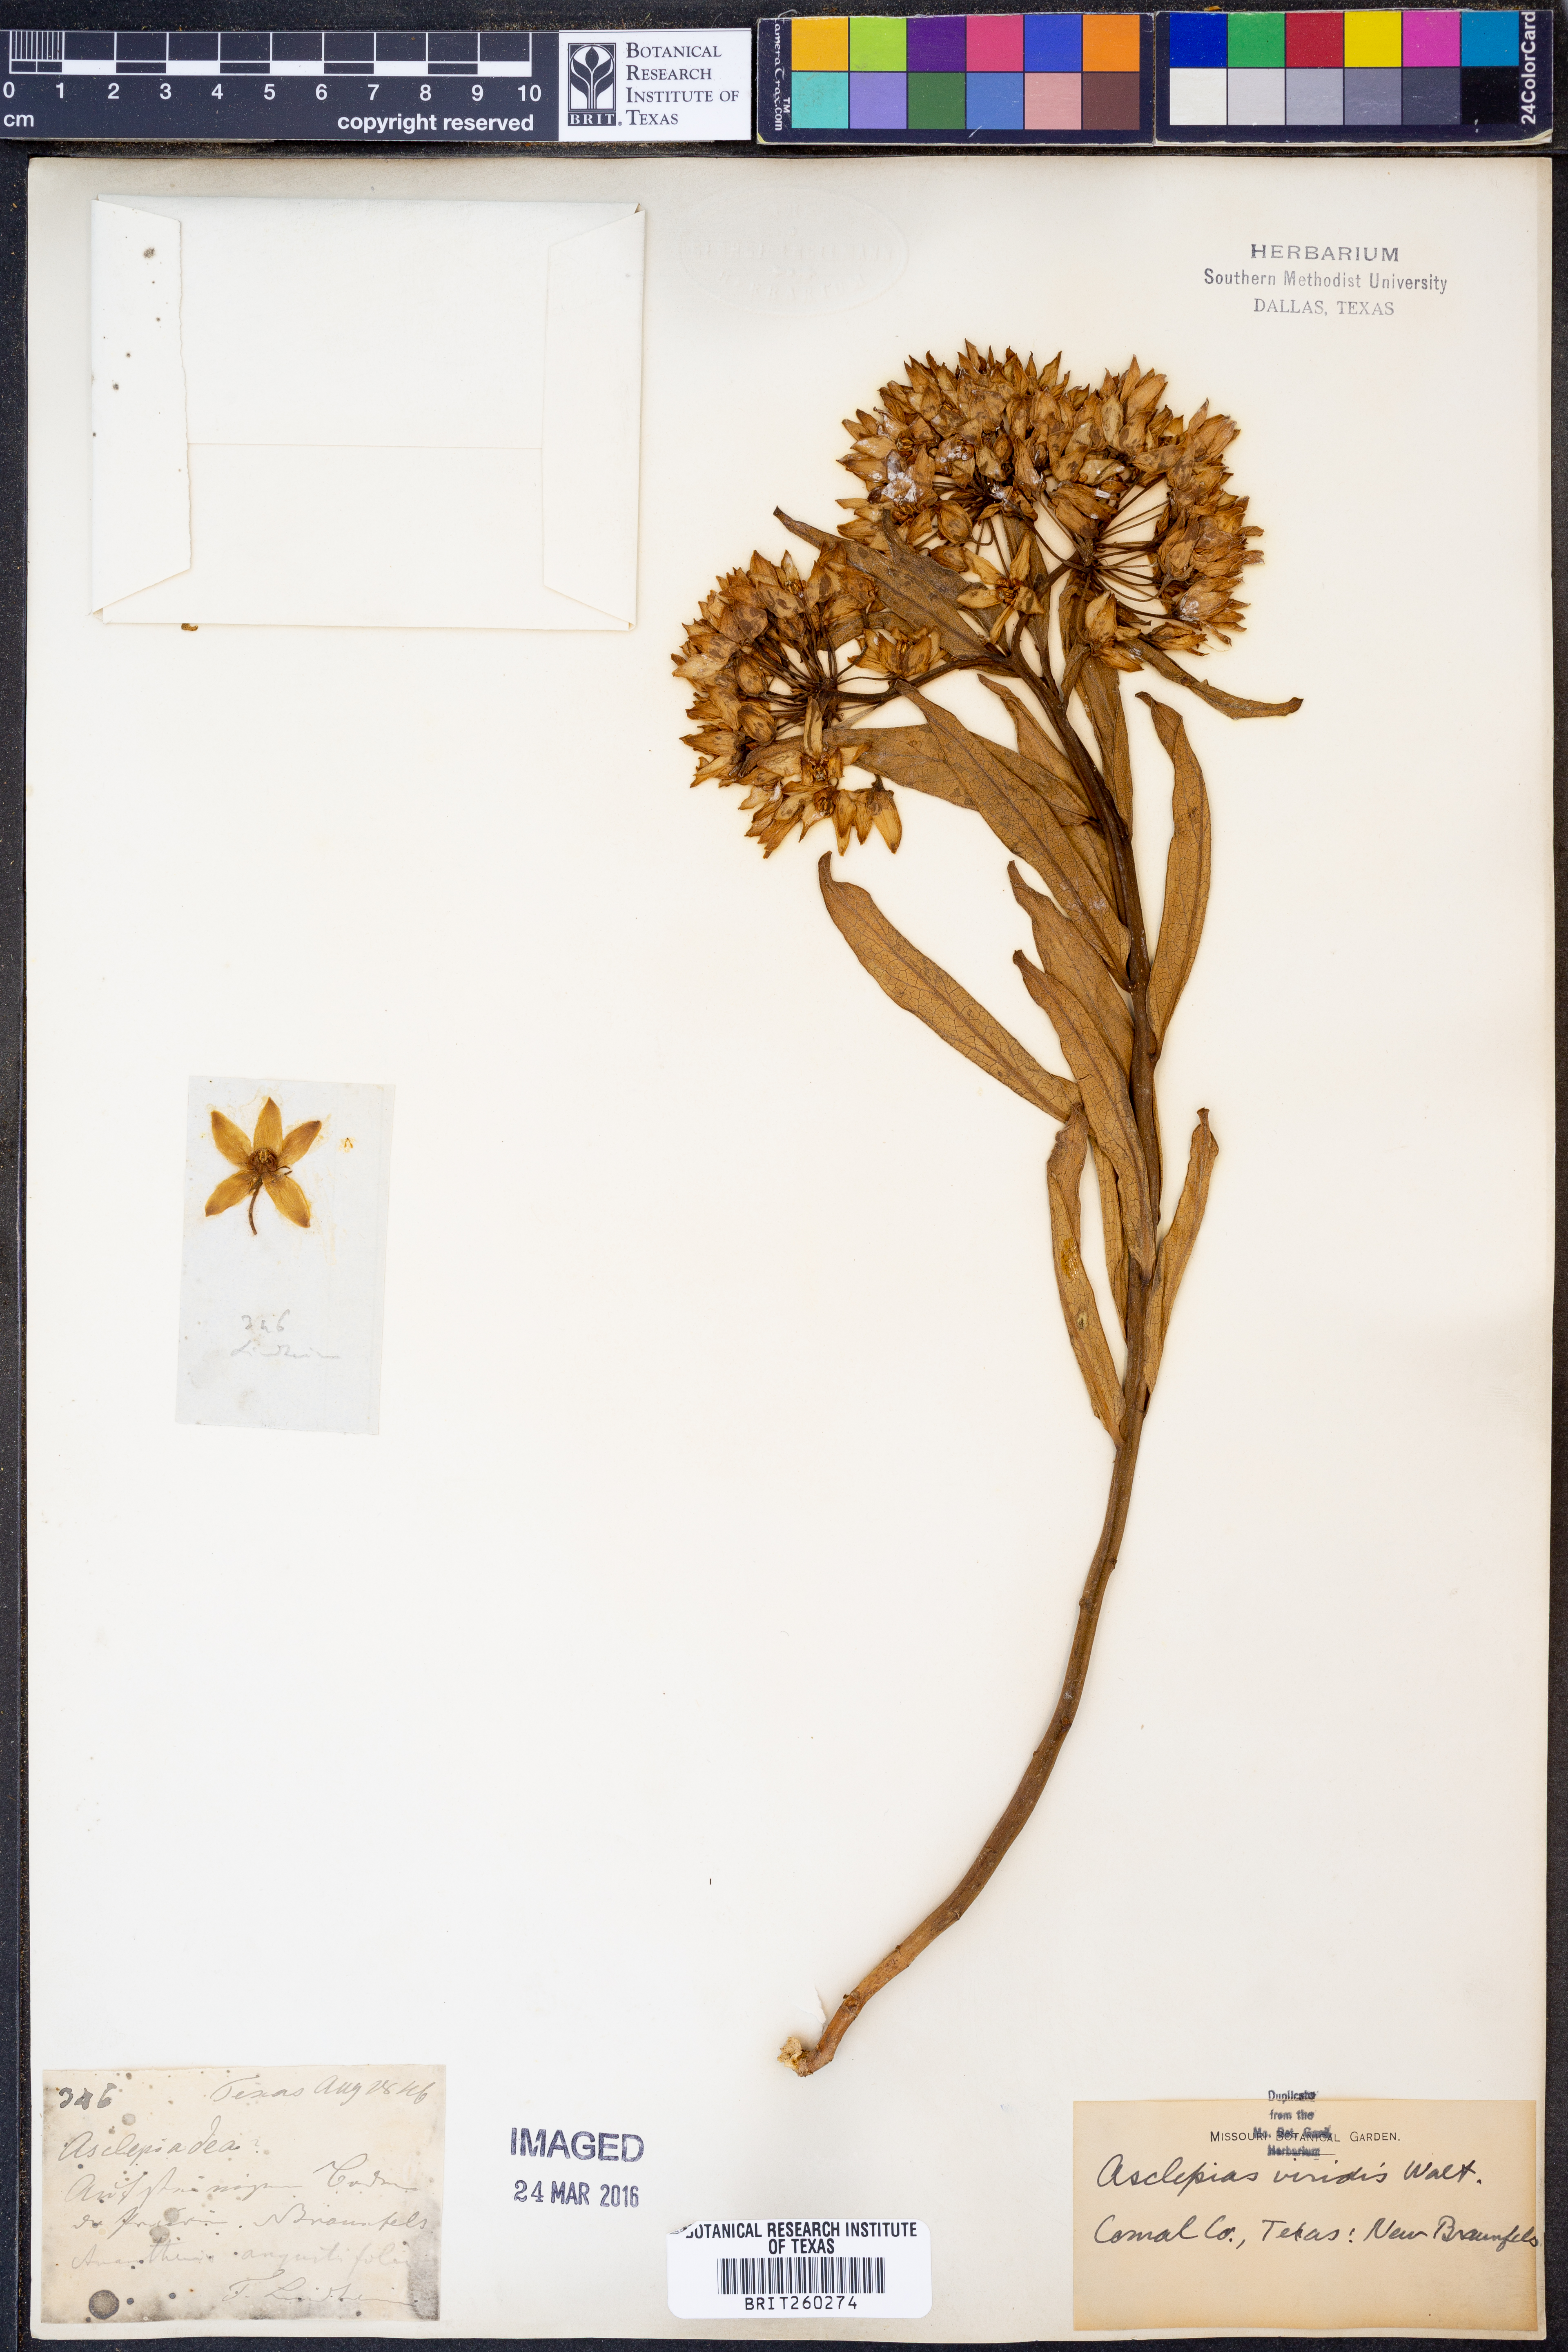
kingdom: Plantae
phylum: Tracheophyta
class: Magnoliopsida
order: Gentianales
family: Apocynaceae
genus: Asclepias
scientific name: Asclepias viridis
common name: Antelope-horns
